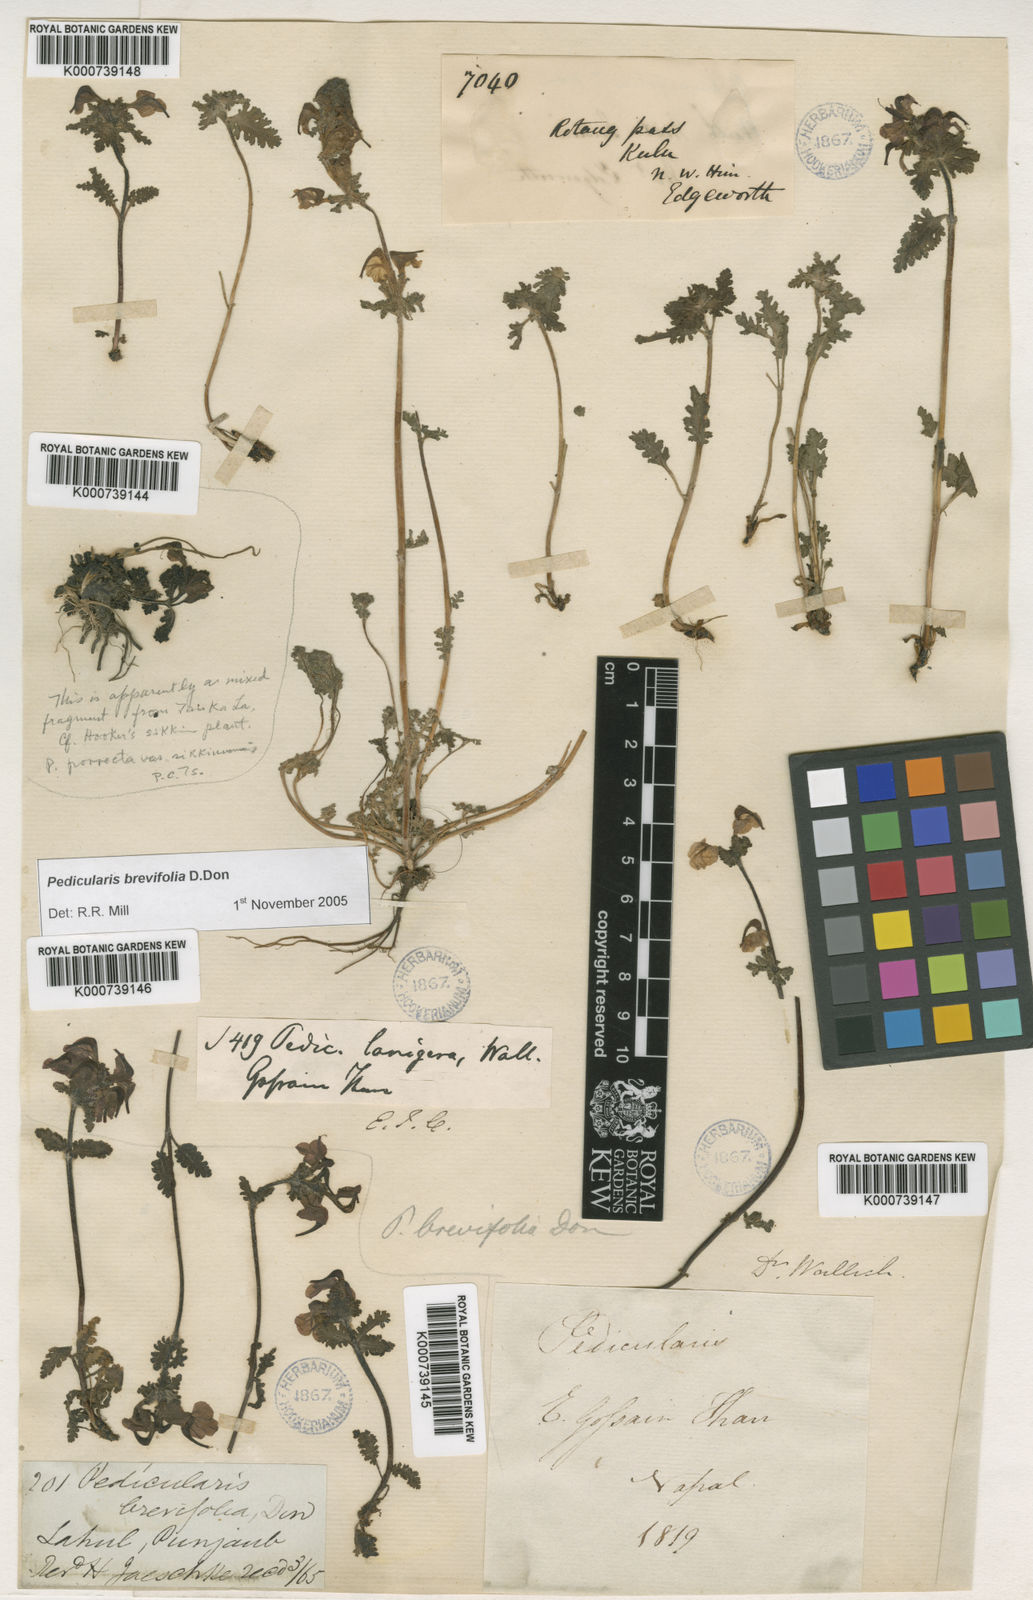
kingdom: Plantae
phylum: Tracheophyta
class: Magnoliopsida
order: Lamiales
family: Orobanchaceae
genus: Pedicularis
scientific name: Pedicularis brevifolia
